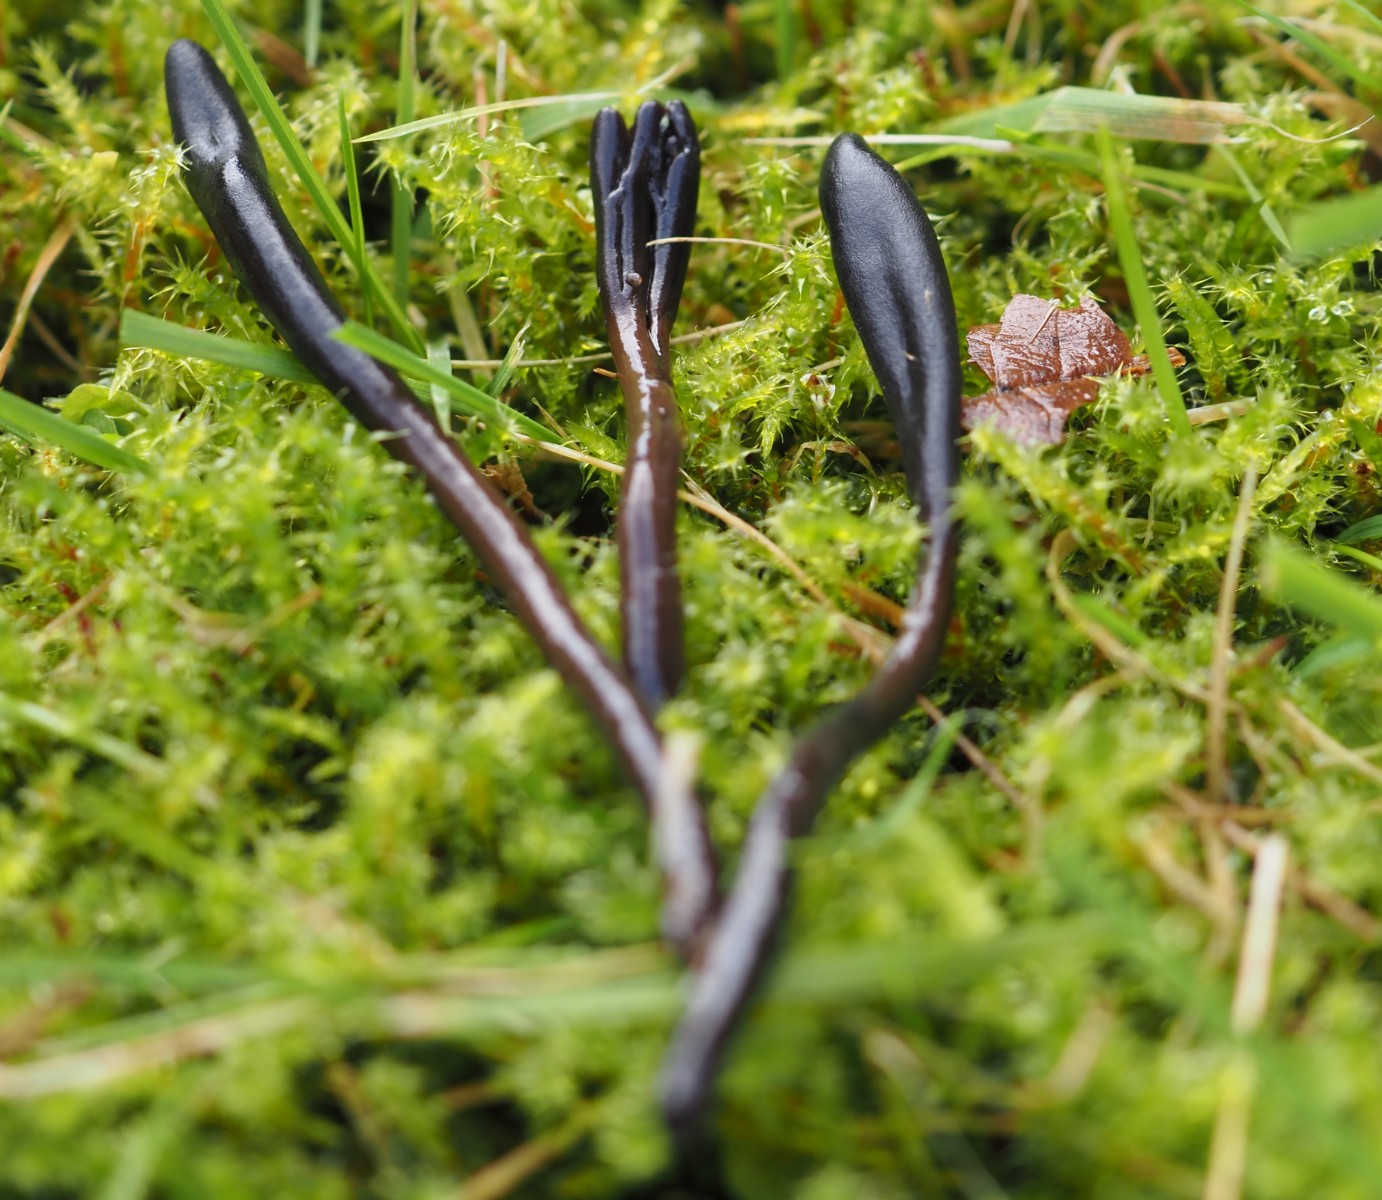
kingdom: Fungi
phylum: Ascomycota
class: Geoglossomycetes
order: Geoglossales
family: Geoglossaceae
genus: Glutinoglossum
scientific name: Glutinoglossum glutinosum
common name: slimet jordtunge
